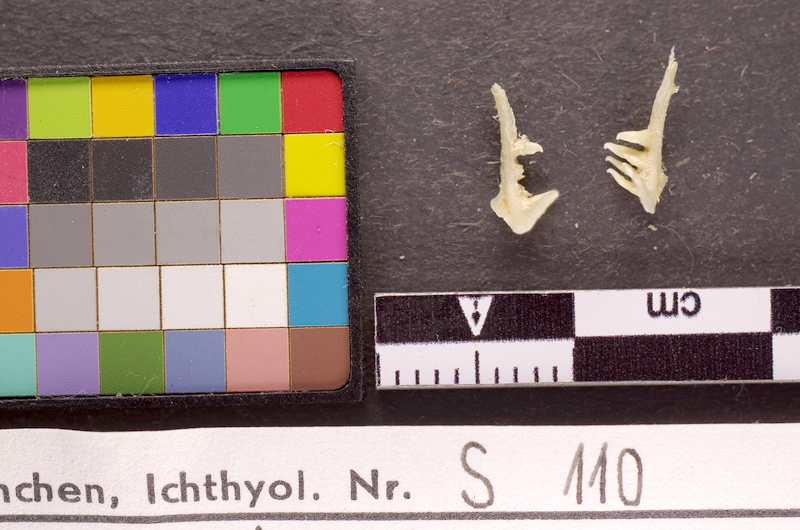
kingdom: Animalia
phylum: Chordata
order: Cypriniformes
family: Cyprinidae
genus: Alburnoides
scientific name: Alburnoides bipunctatus
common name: Spirlin
